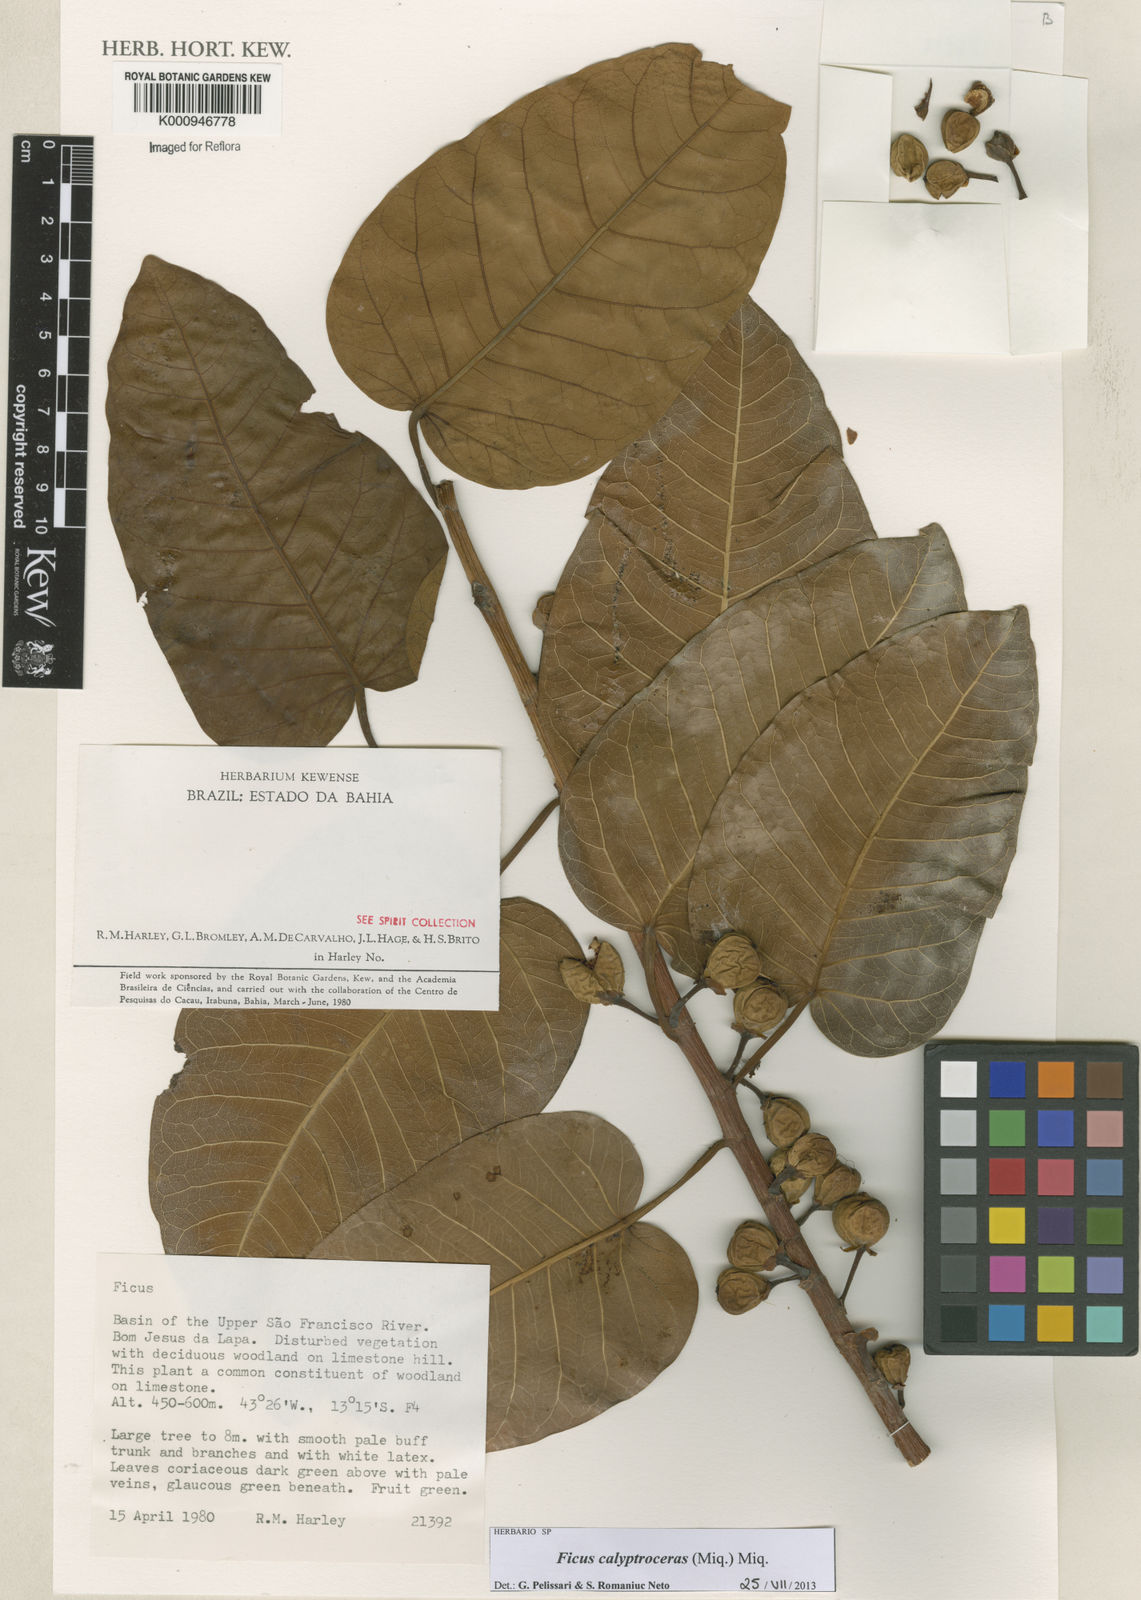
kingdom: Plantae
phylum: Tracheophyta
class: Magnoliopsida
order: Rosales
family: Moraceae
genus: Ficus
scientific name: Ficus calyptroceras
